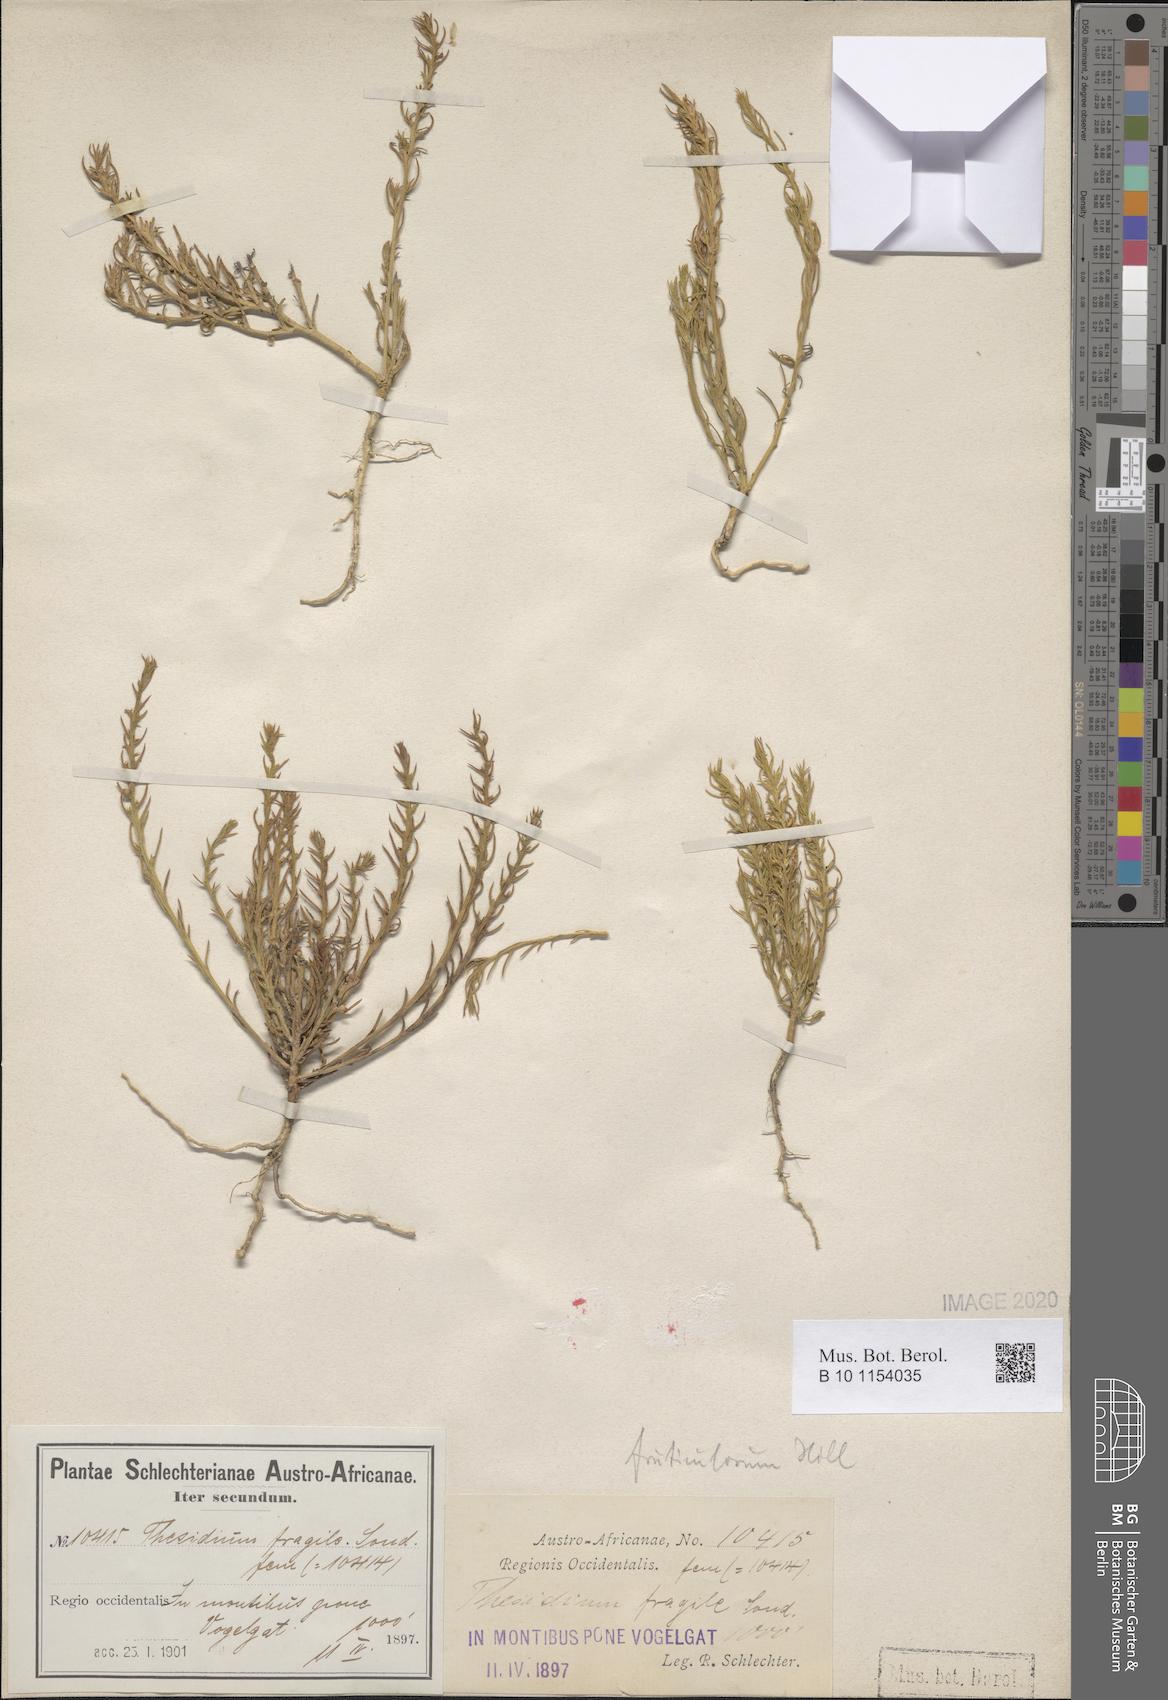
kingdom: Plantae
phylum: Tracheophyta
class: Magnoliopsida
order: Santalales
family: Thesiaceae
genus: Thesium
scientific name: Thesium fruticulosum
